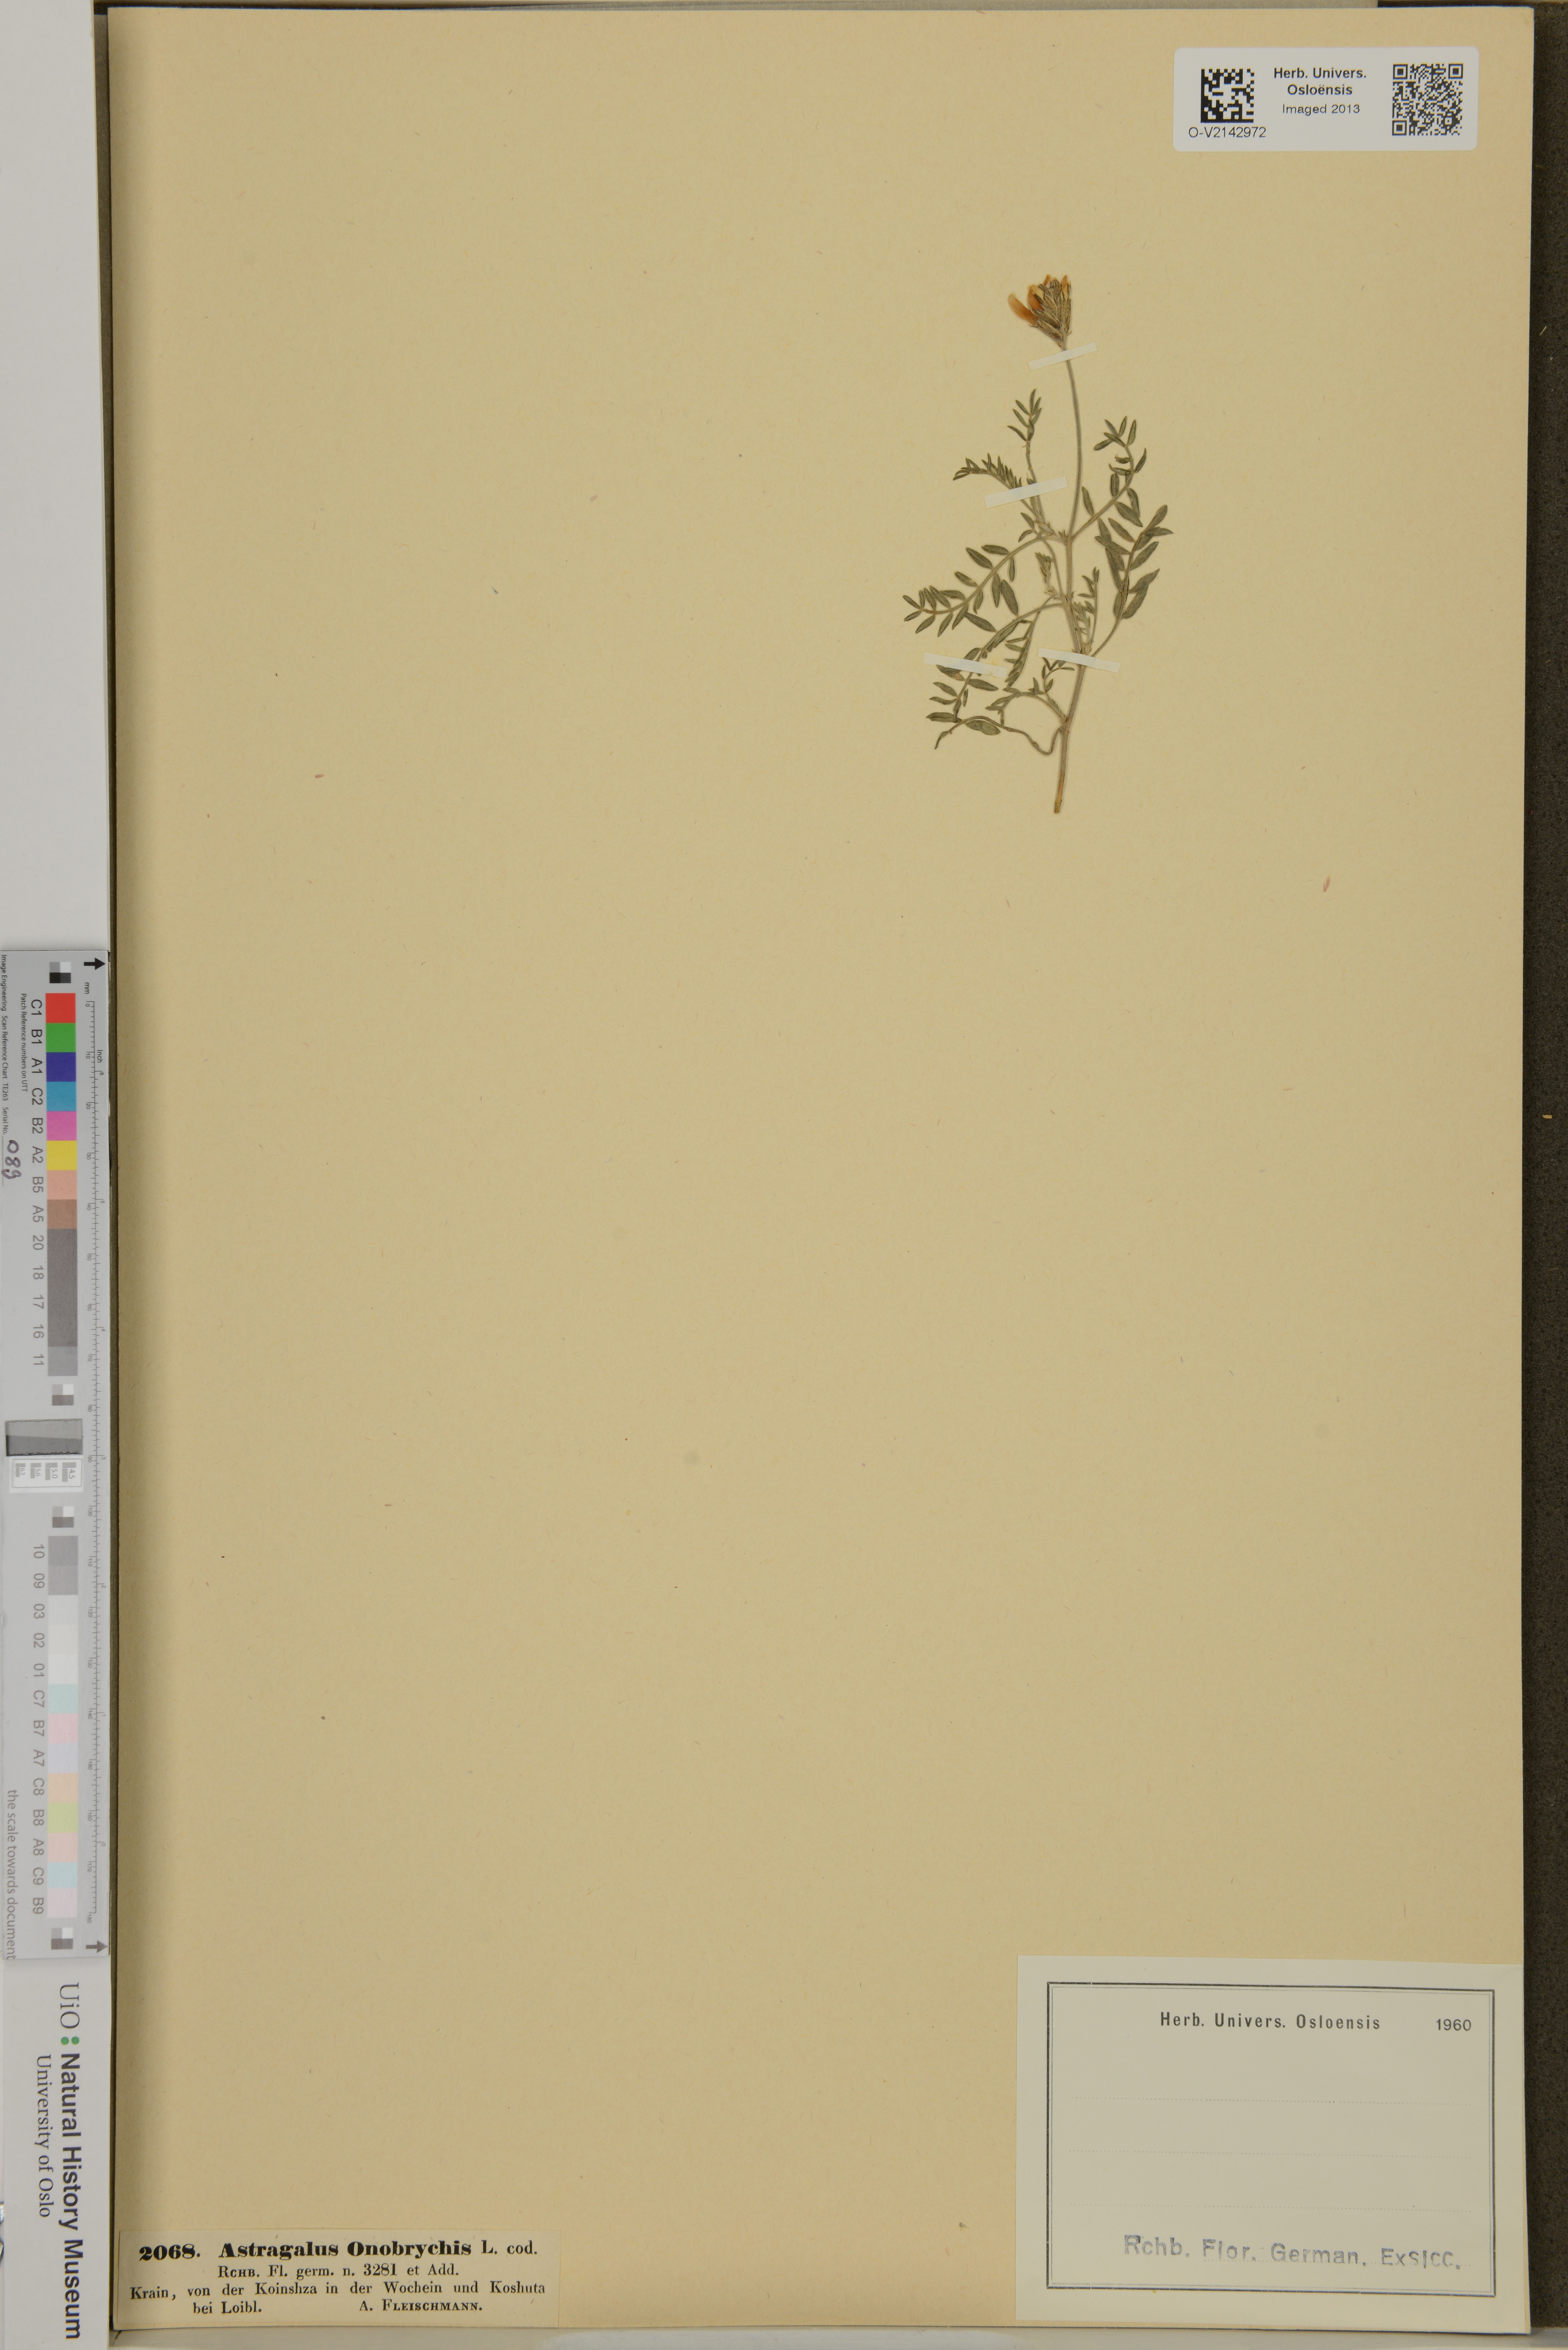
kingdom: Plantae
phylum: Tracheophyta
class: Magnoliopsida
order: Fabales
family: Fabaceae
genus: Astragalus
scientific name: Astragalus onobrychis
